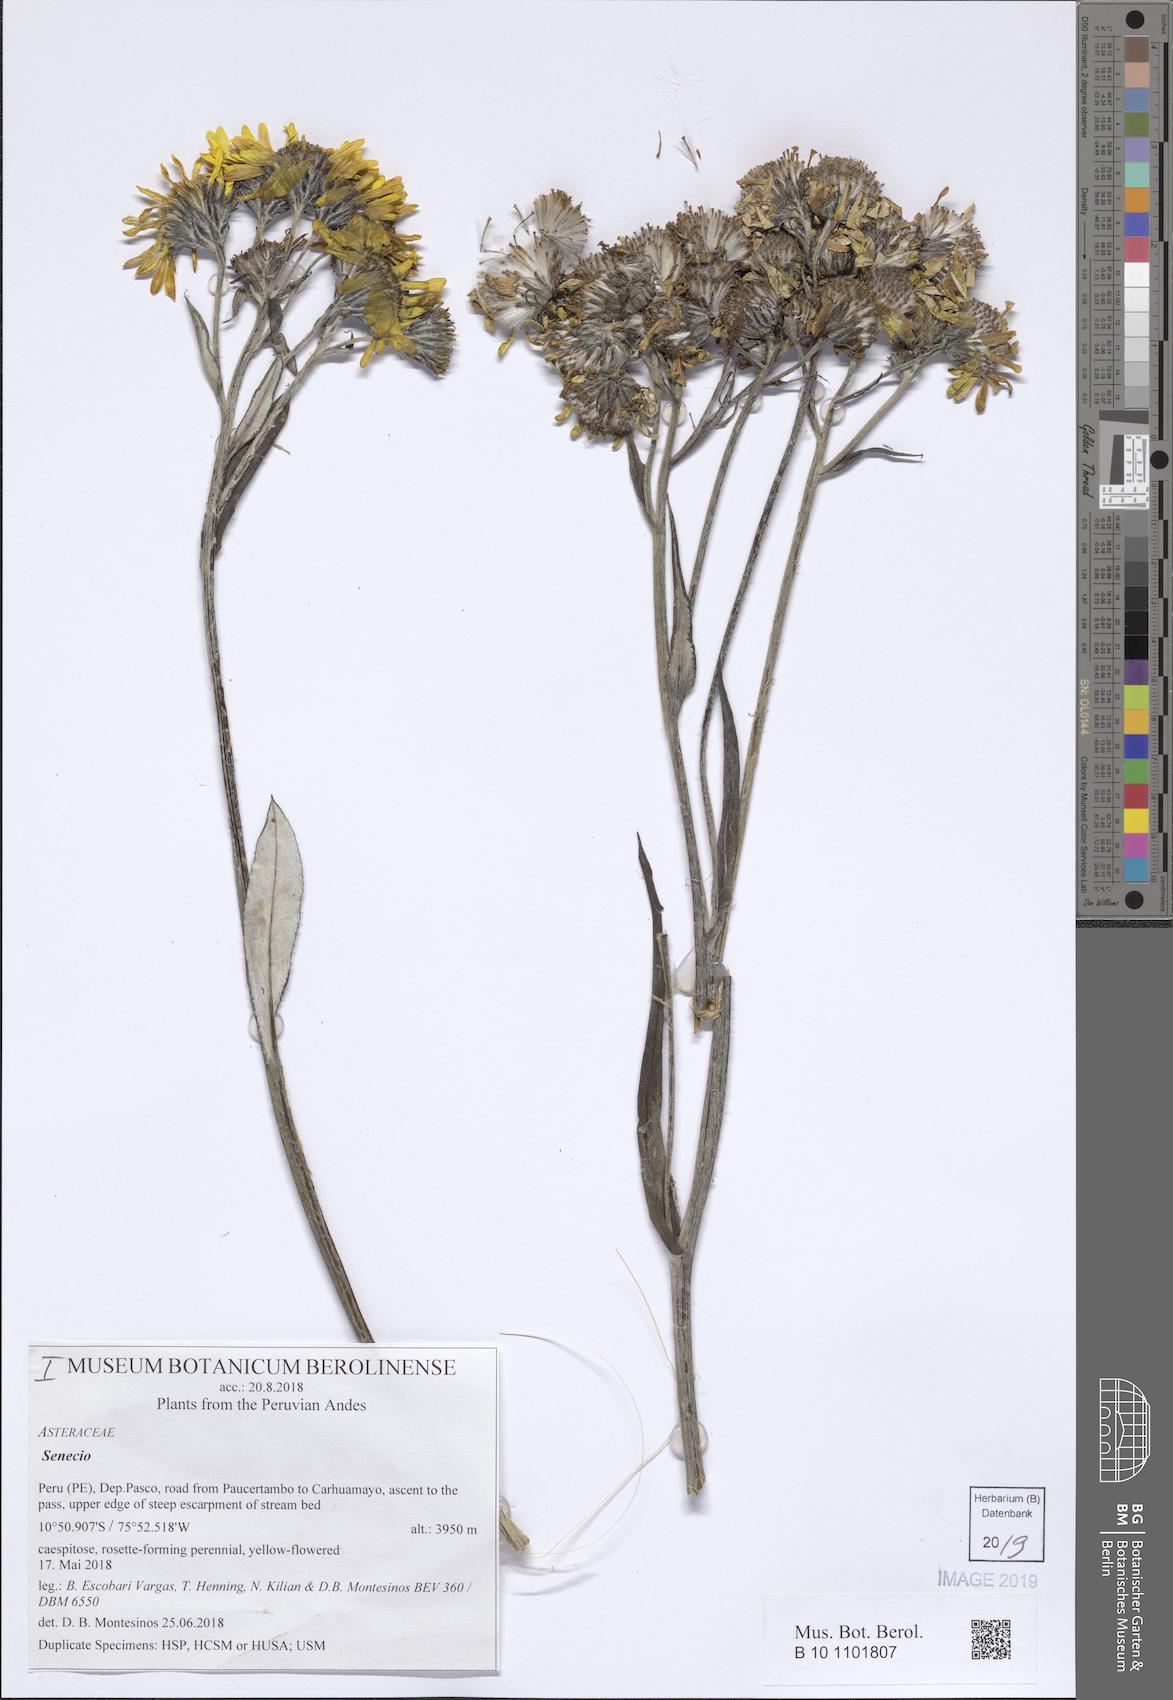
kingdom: Plantae
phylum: Tracheophyta
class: Magnoliopsida
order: Asterales
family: Asteraceae
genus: Senecio
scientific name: Senecio comosus
